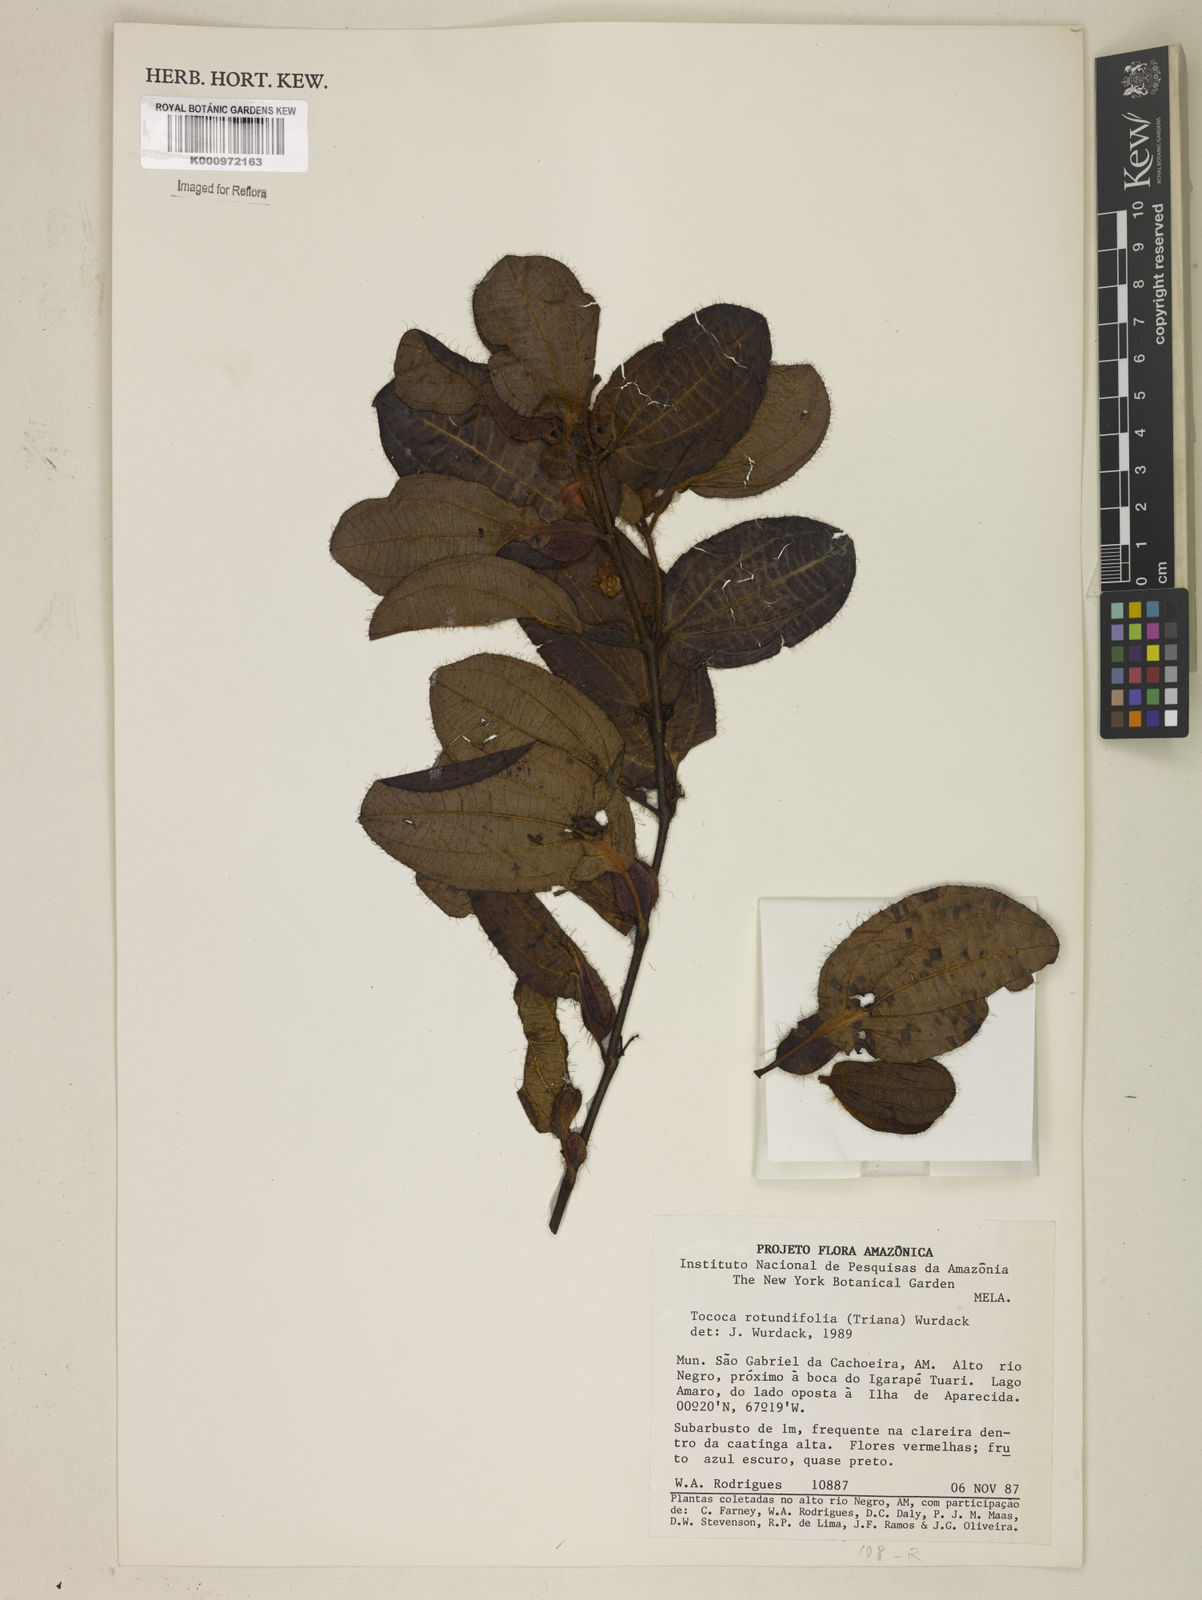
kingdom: Plantae
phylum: Tracheophyta
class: Magnoliopsida
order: Myrtales
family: Melastomataceae
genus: Miconia
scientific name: Miconia rubripetala
